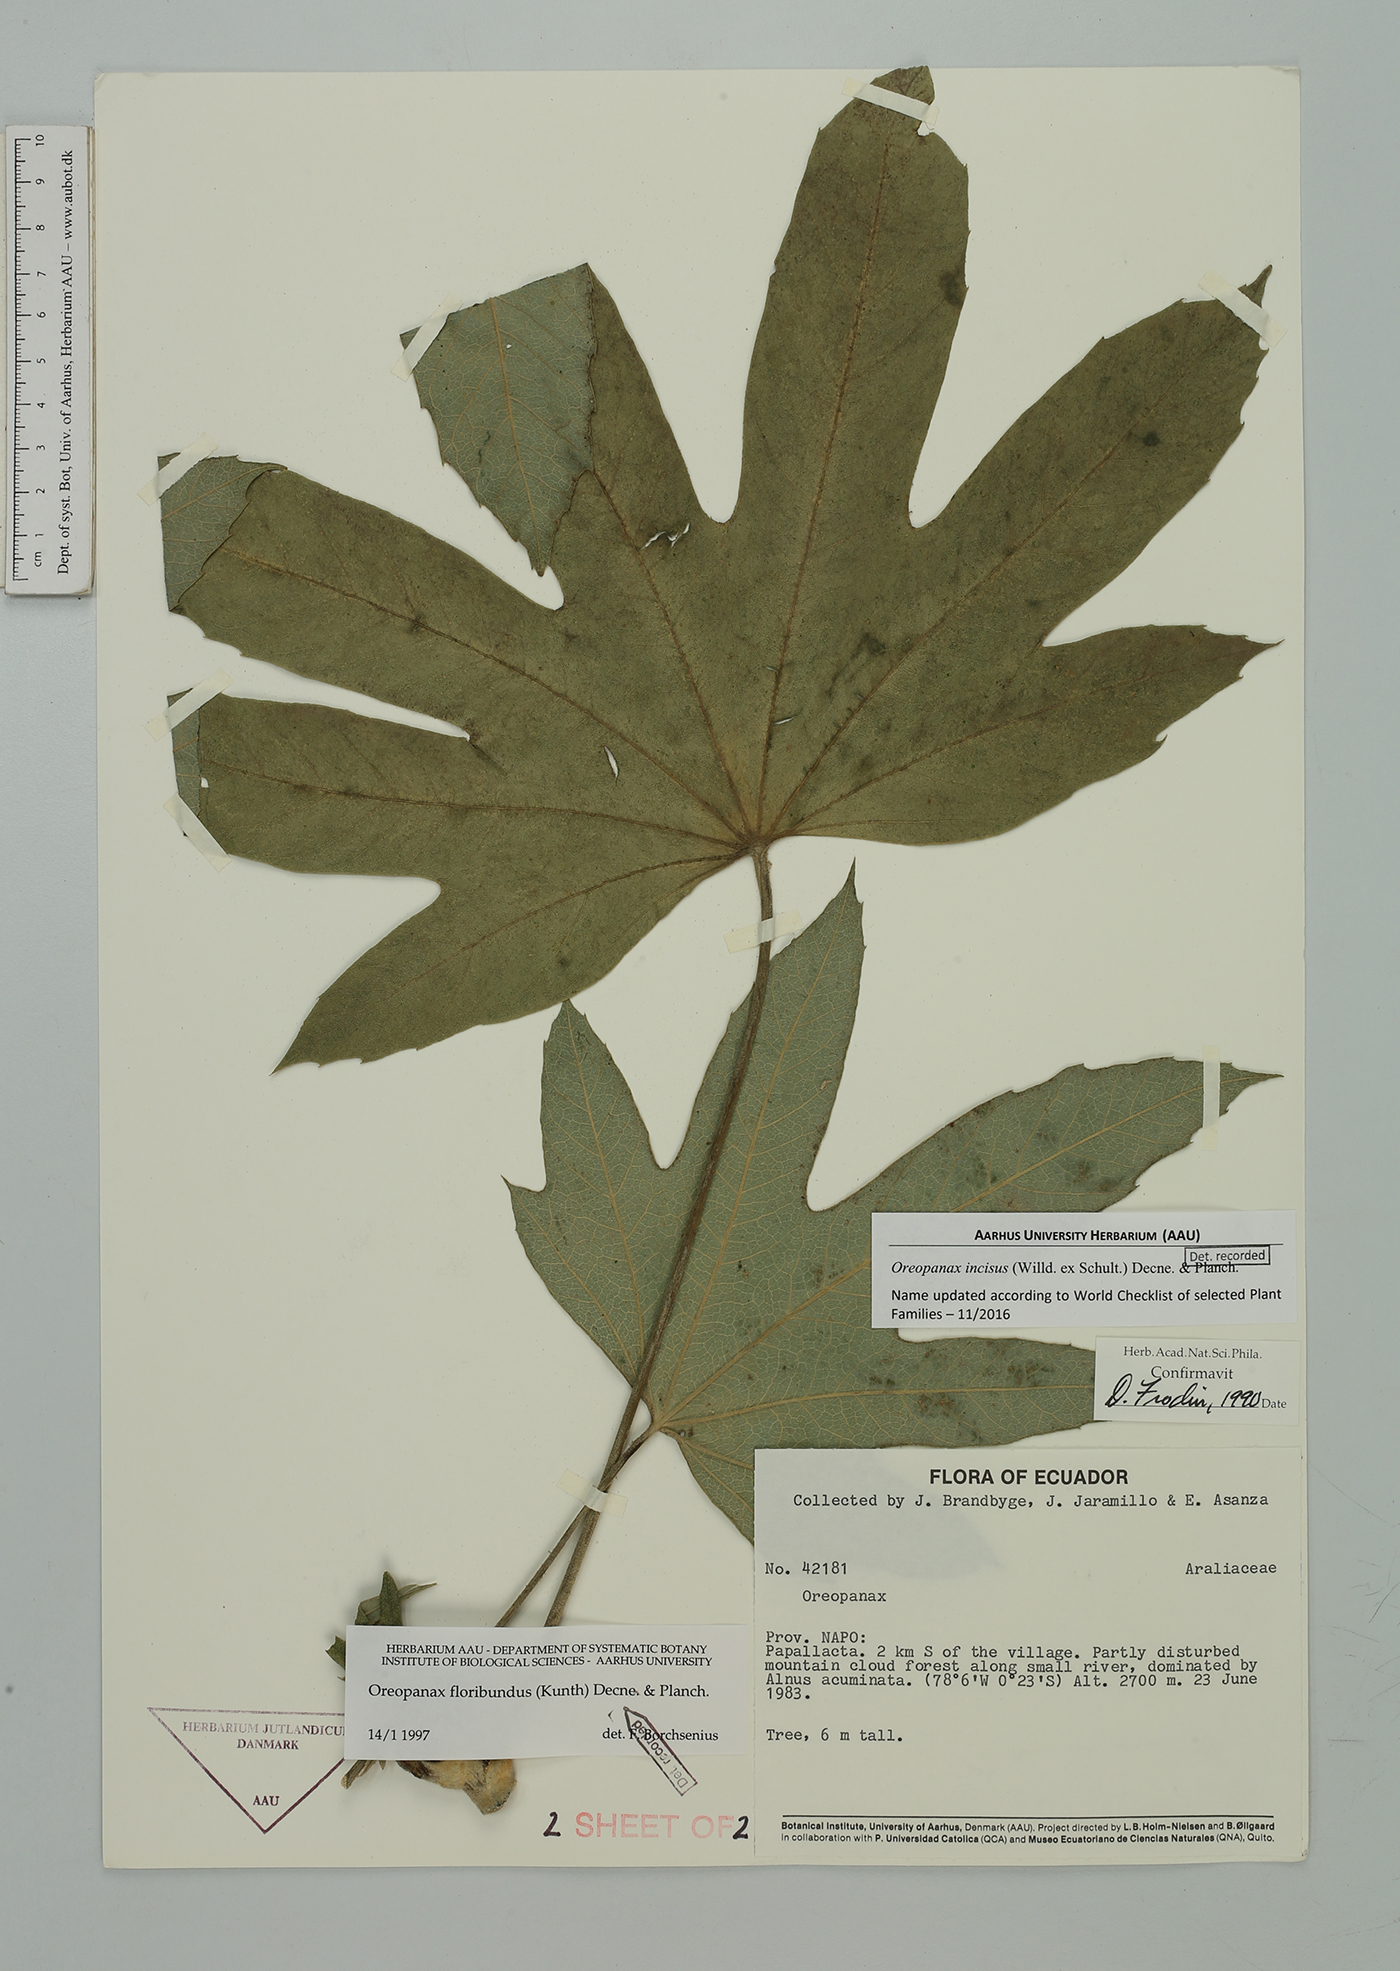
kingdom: Plantae
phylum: Tracheophyta
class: Magnoliopsida
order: Apiales
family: Araliaceae
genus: Oreopanax
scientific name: Oreopanax incisus
